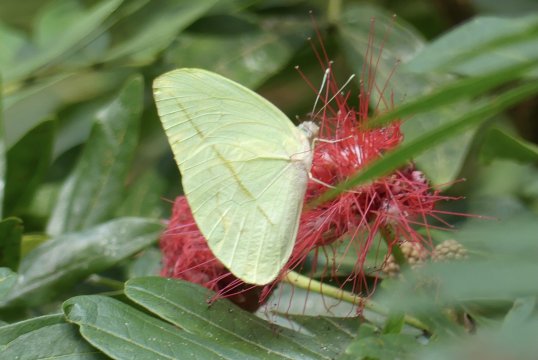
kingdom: Animalia
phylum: Arthropoda
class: Insecta
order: Lepidoptera
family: Pieridae
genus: Rhabdodryas
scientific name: Rhabdodryas trite
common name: Straight-lined Sulphur
